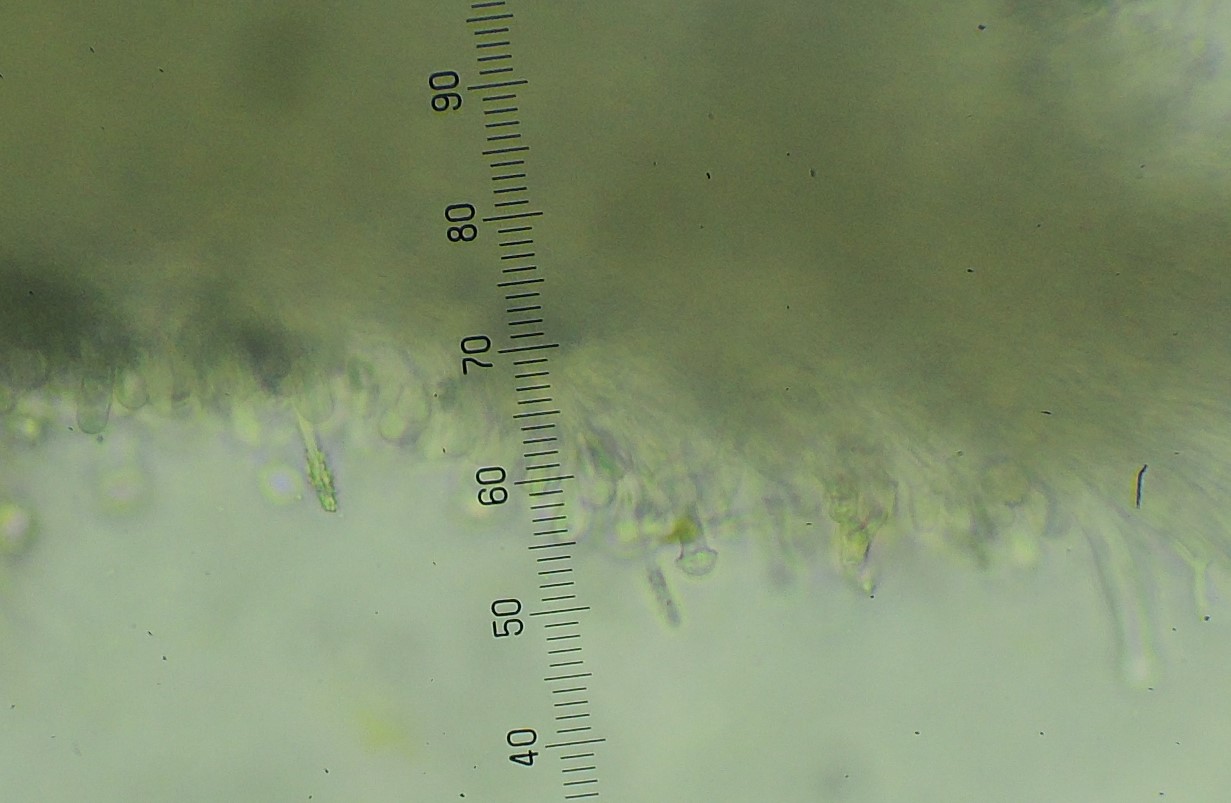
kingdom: Fungi
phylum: Basidiomycota
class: Agaricomycetes
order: Hymenochaetales
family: Hyphodontiaceae
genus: Hyphodontia
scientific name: Hyphodontia arguta
